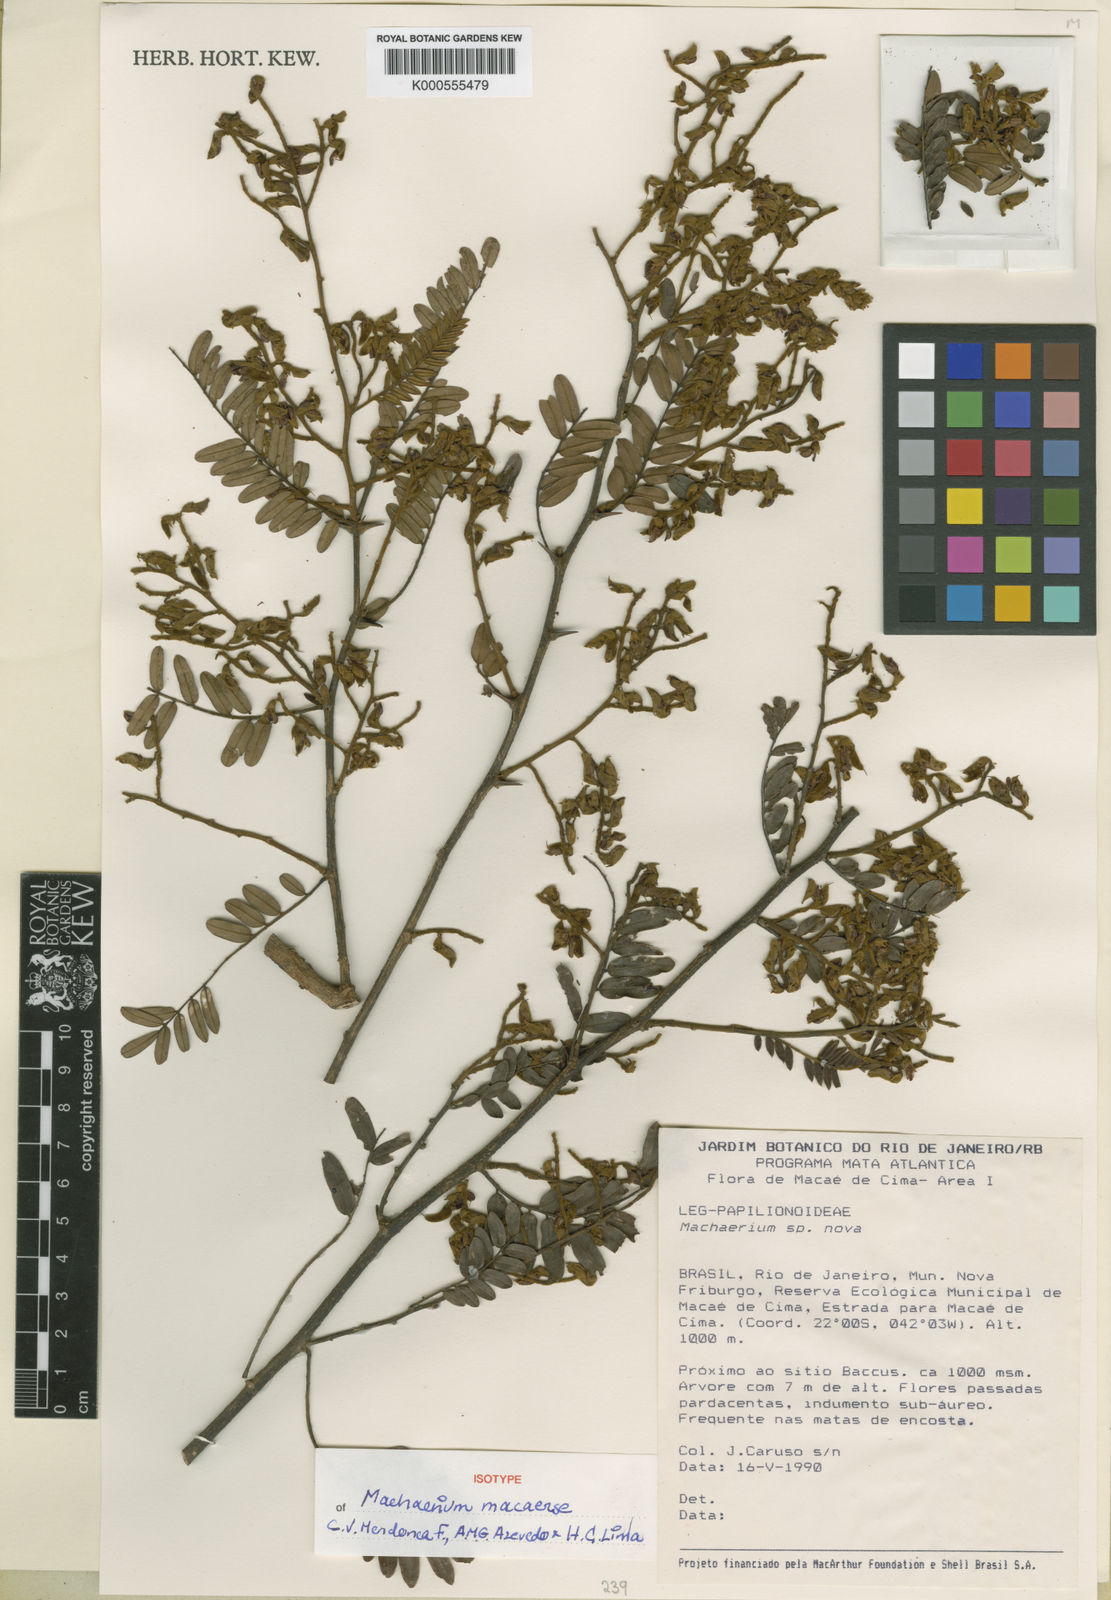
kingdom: Plantae
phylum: Tracheophyta
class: Magnoliopsida
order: Fabales
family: Fabaceae
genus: Machaerium
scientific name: Machaerium
